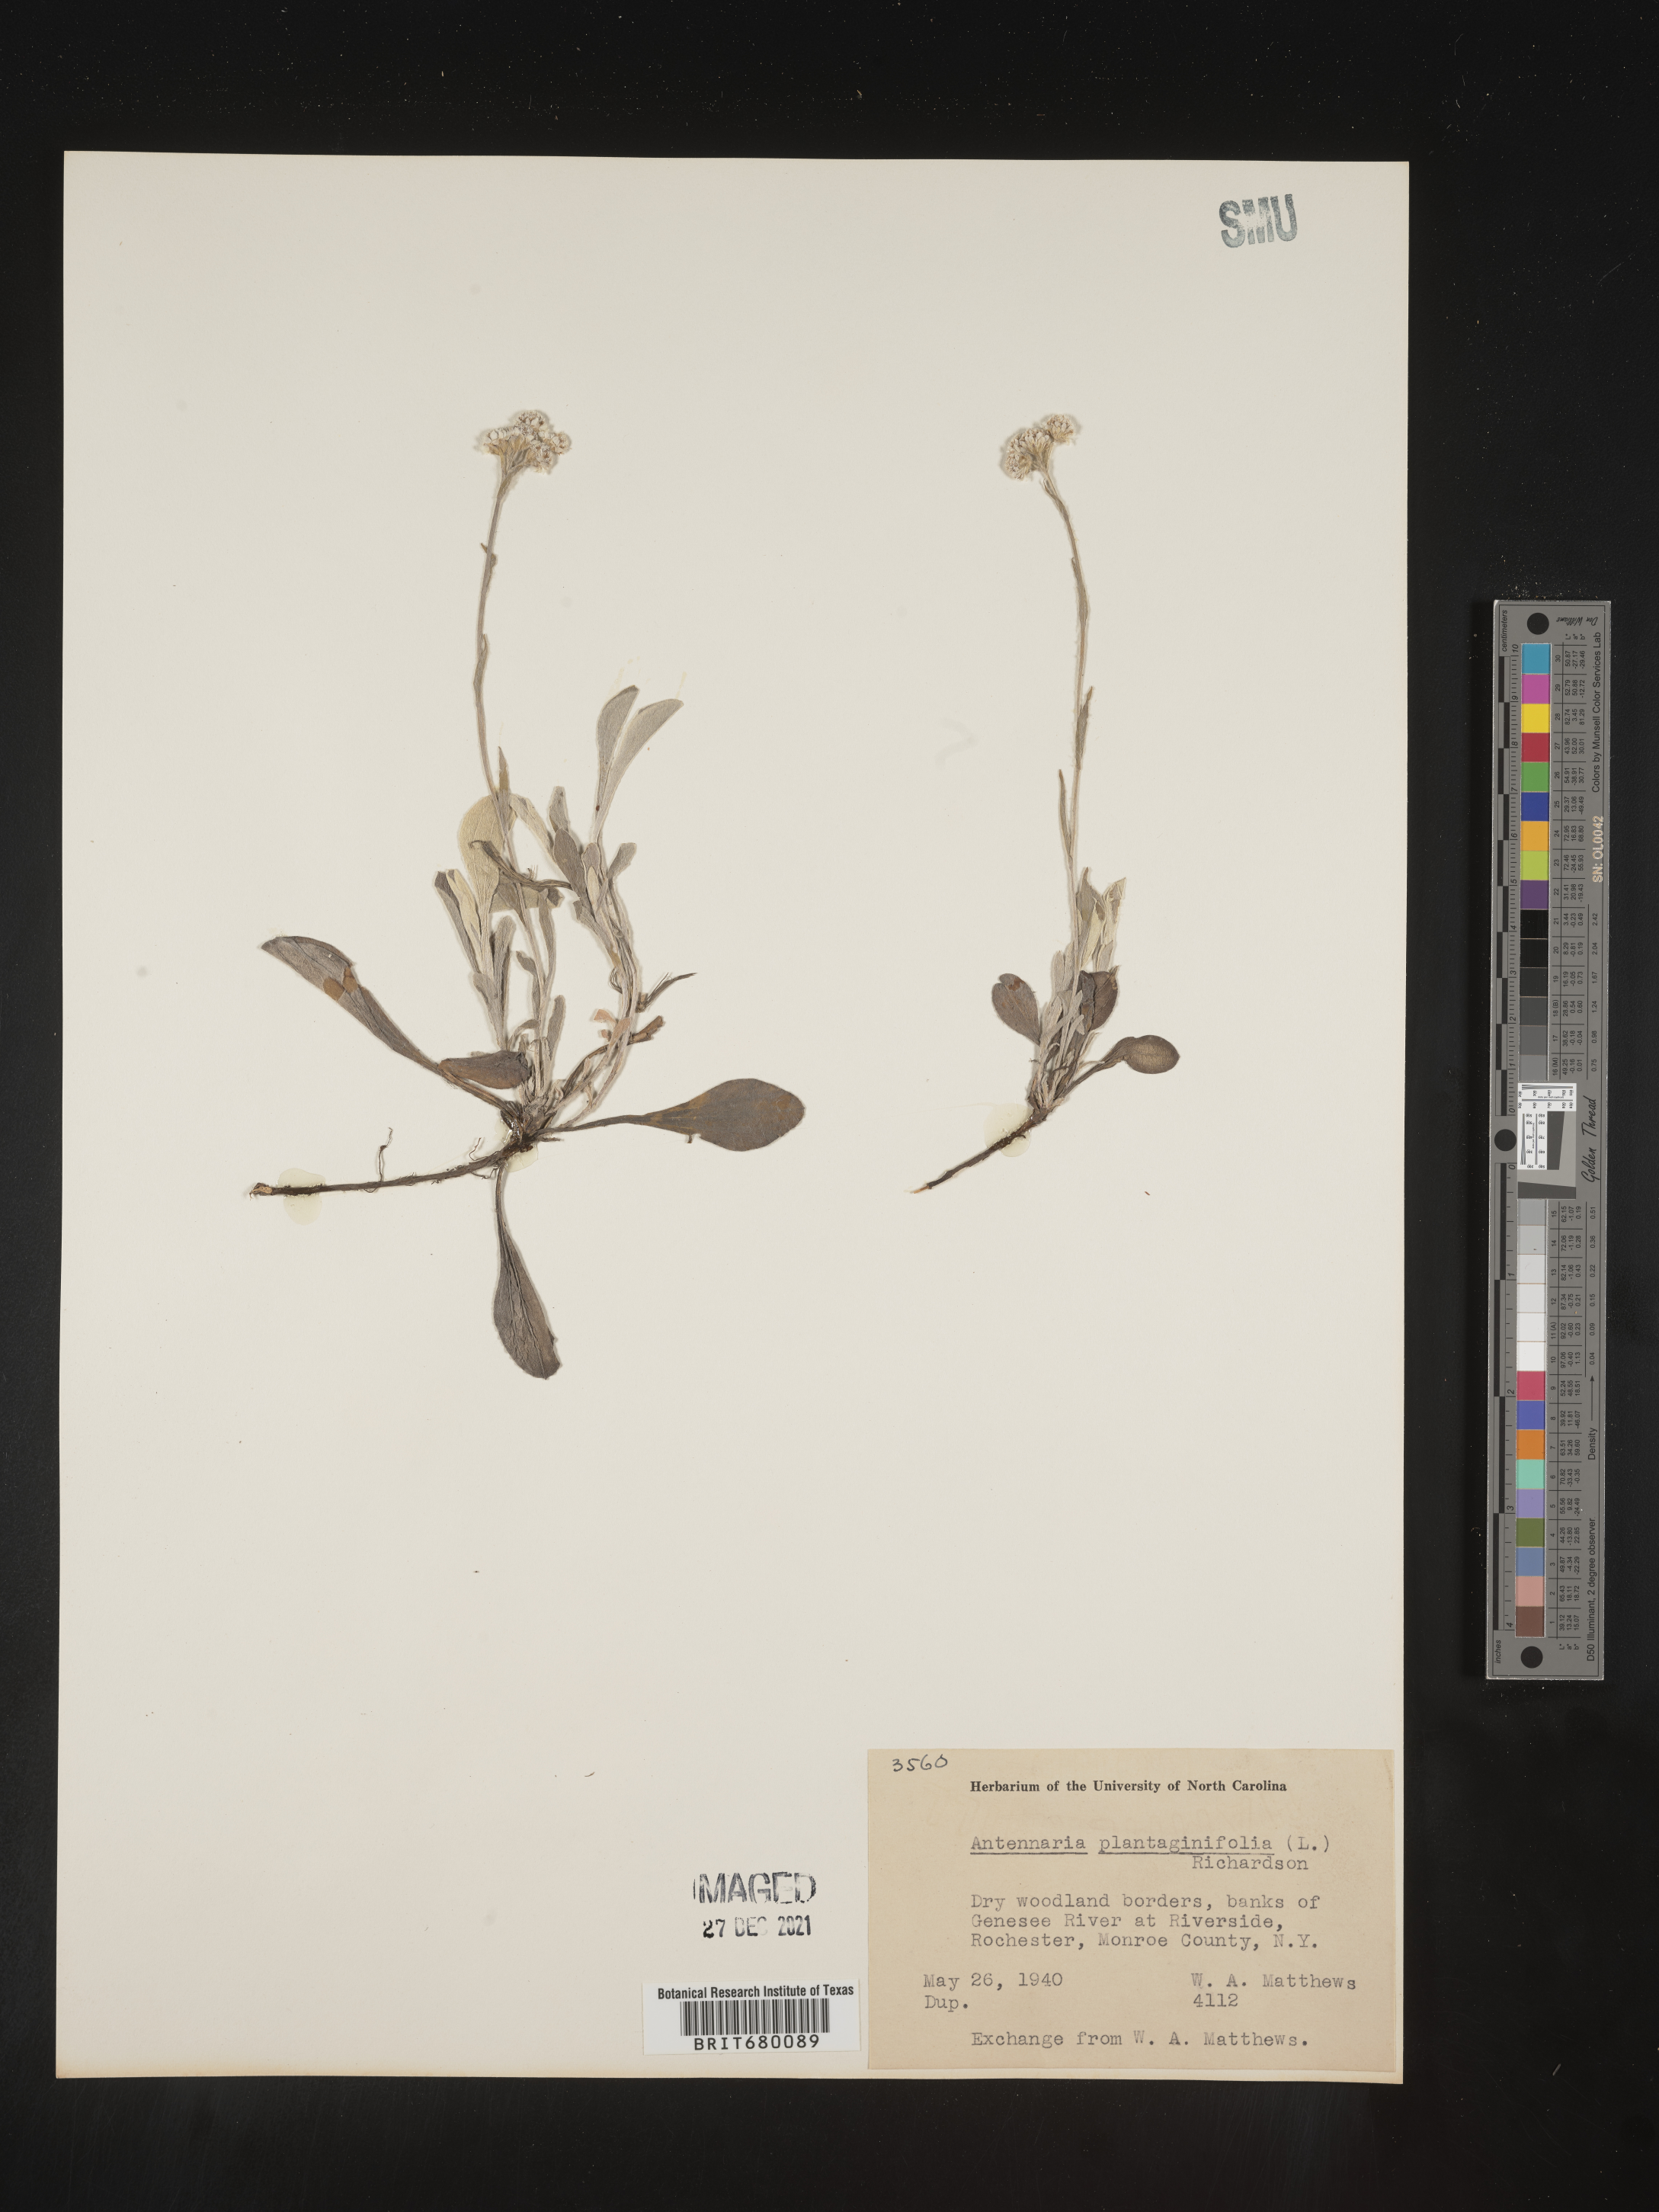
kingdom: Plantae
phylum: Tracheophyta
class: Magnoliopsida
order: Asterales
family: Asteraceae
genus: Antennaria
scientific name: Antennaria plantaginifolia
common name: Plantain-leaved pussytoes
